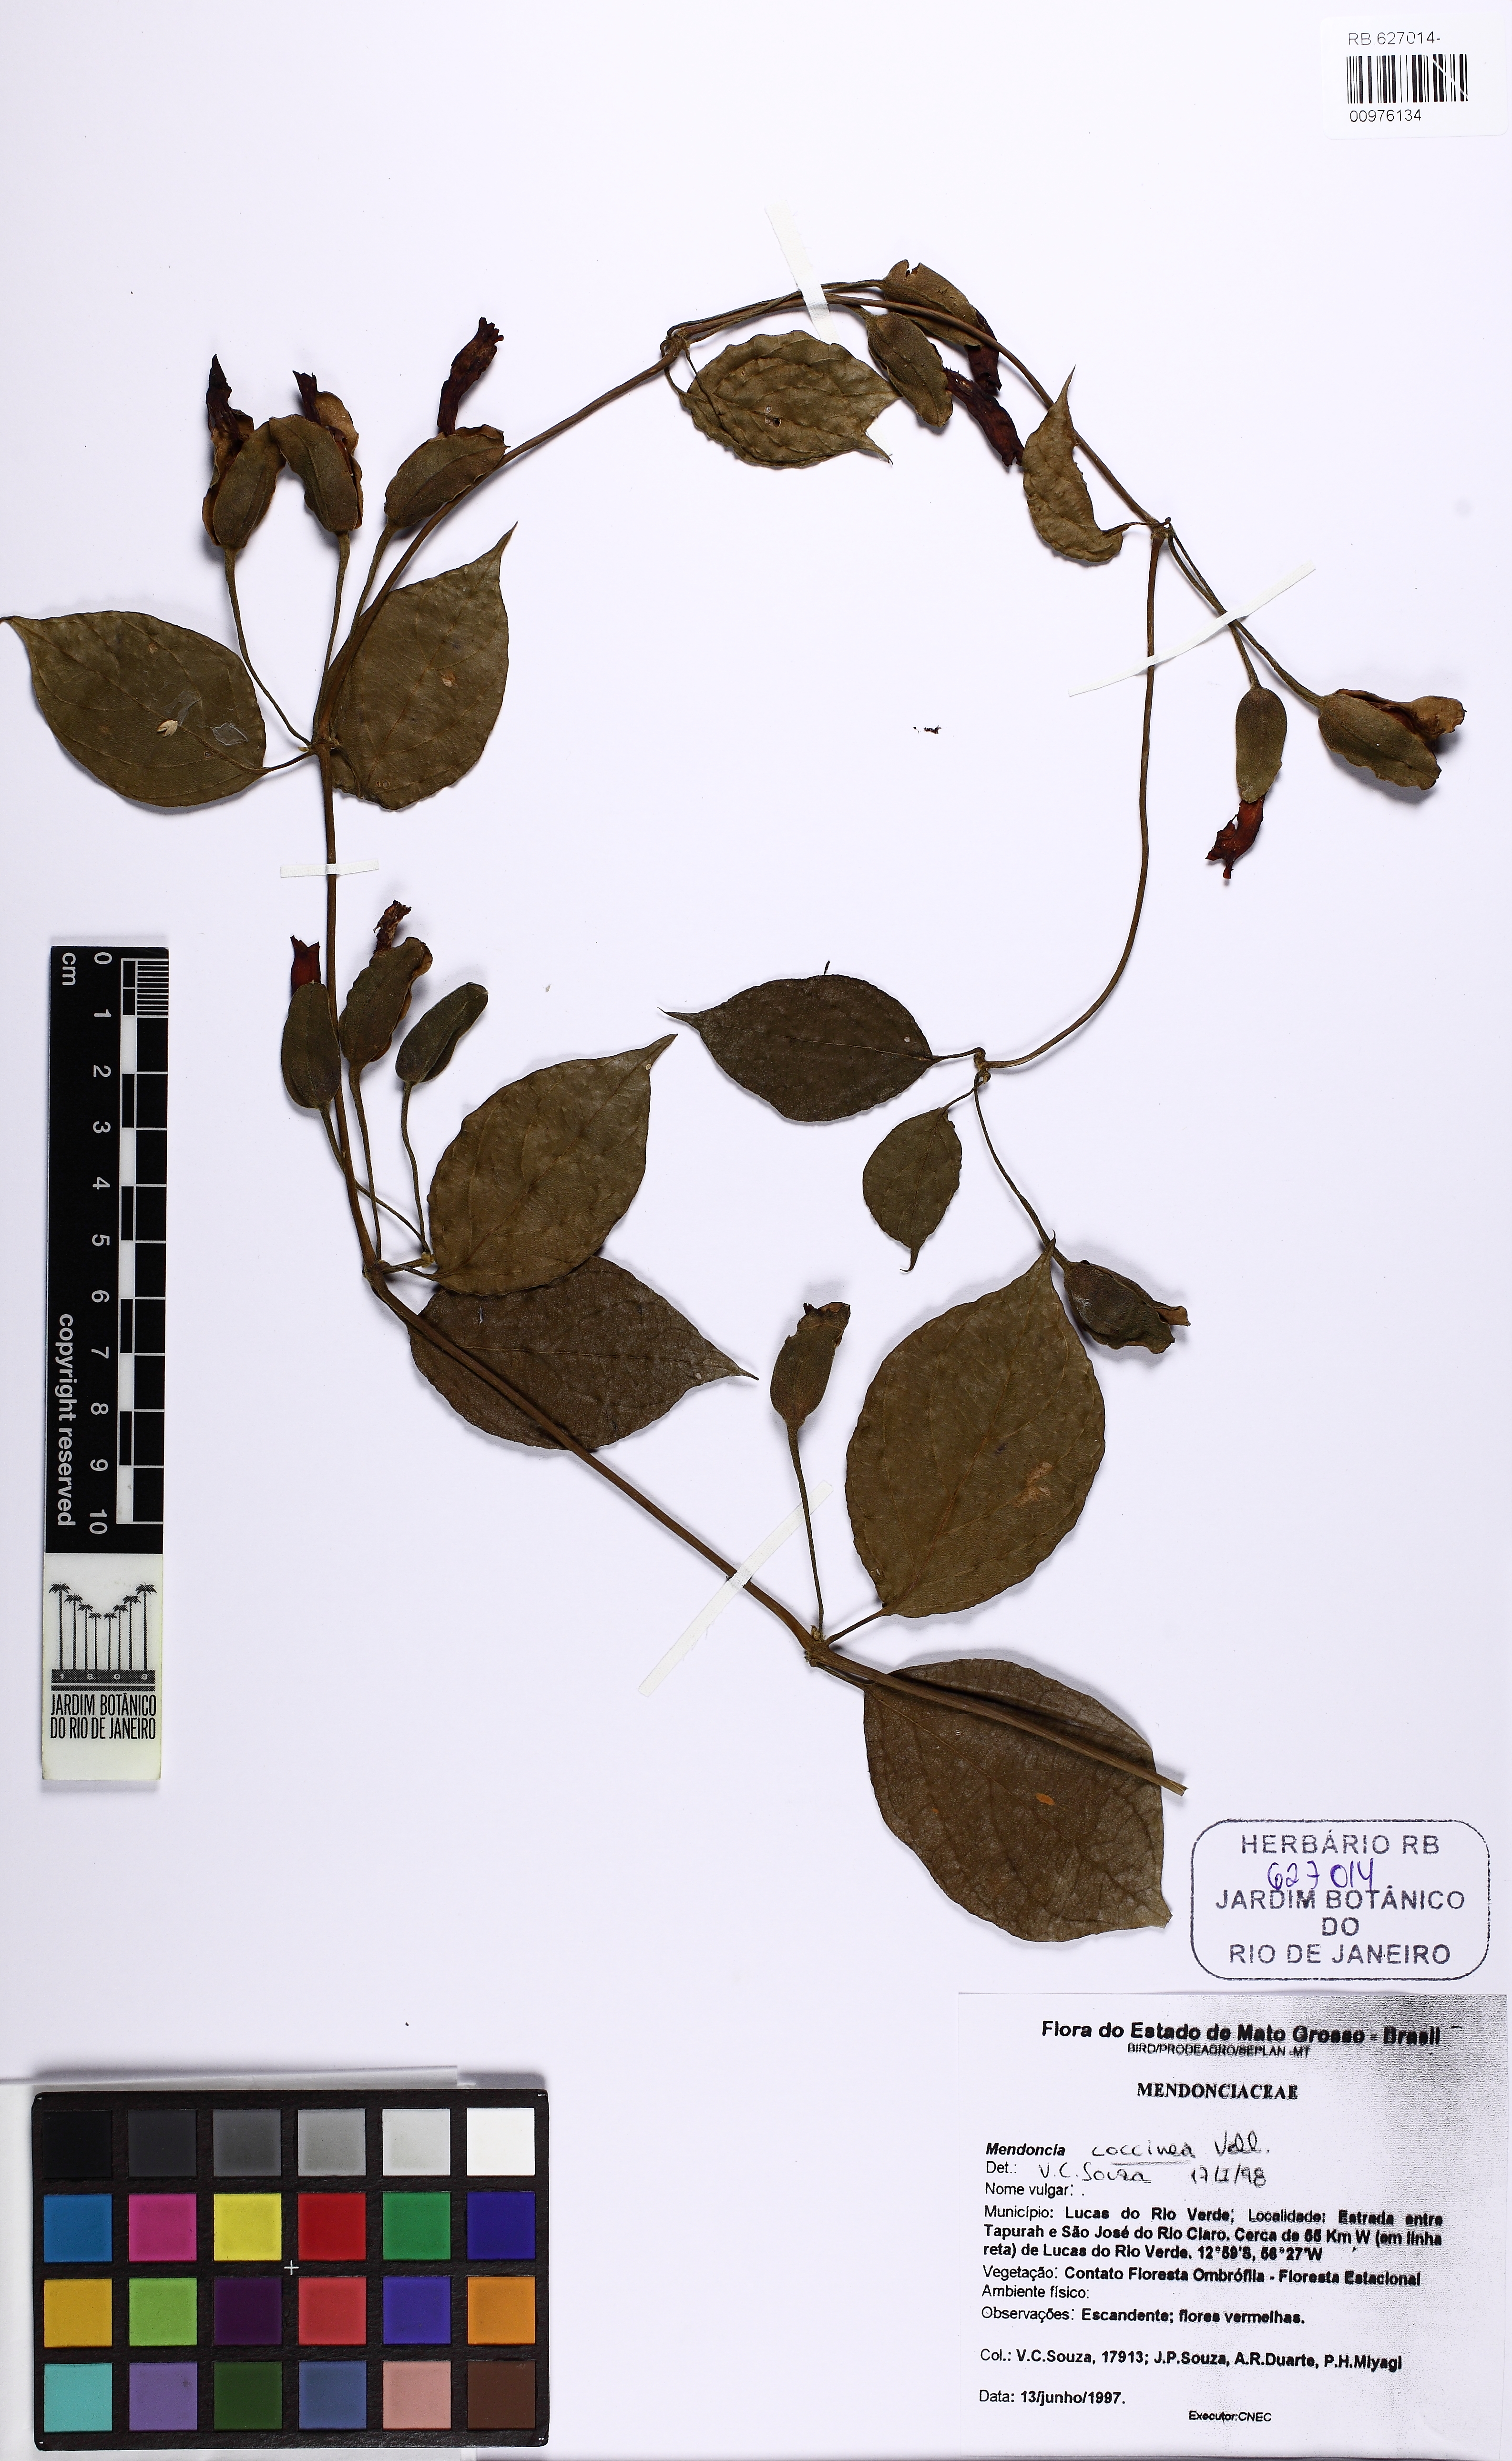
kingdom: Plantae
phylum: Tracheophyta
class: Magnoliopsida
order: Lamiales
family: Acanthaceae
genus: Mendoncia
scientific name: Mendoncia sprucei
